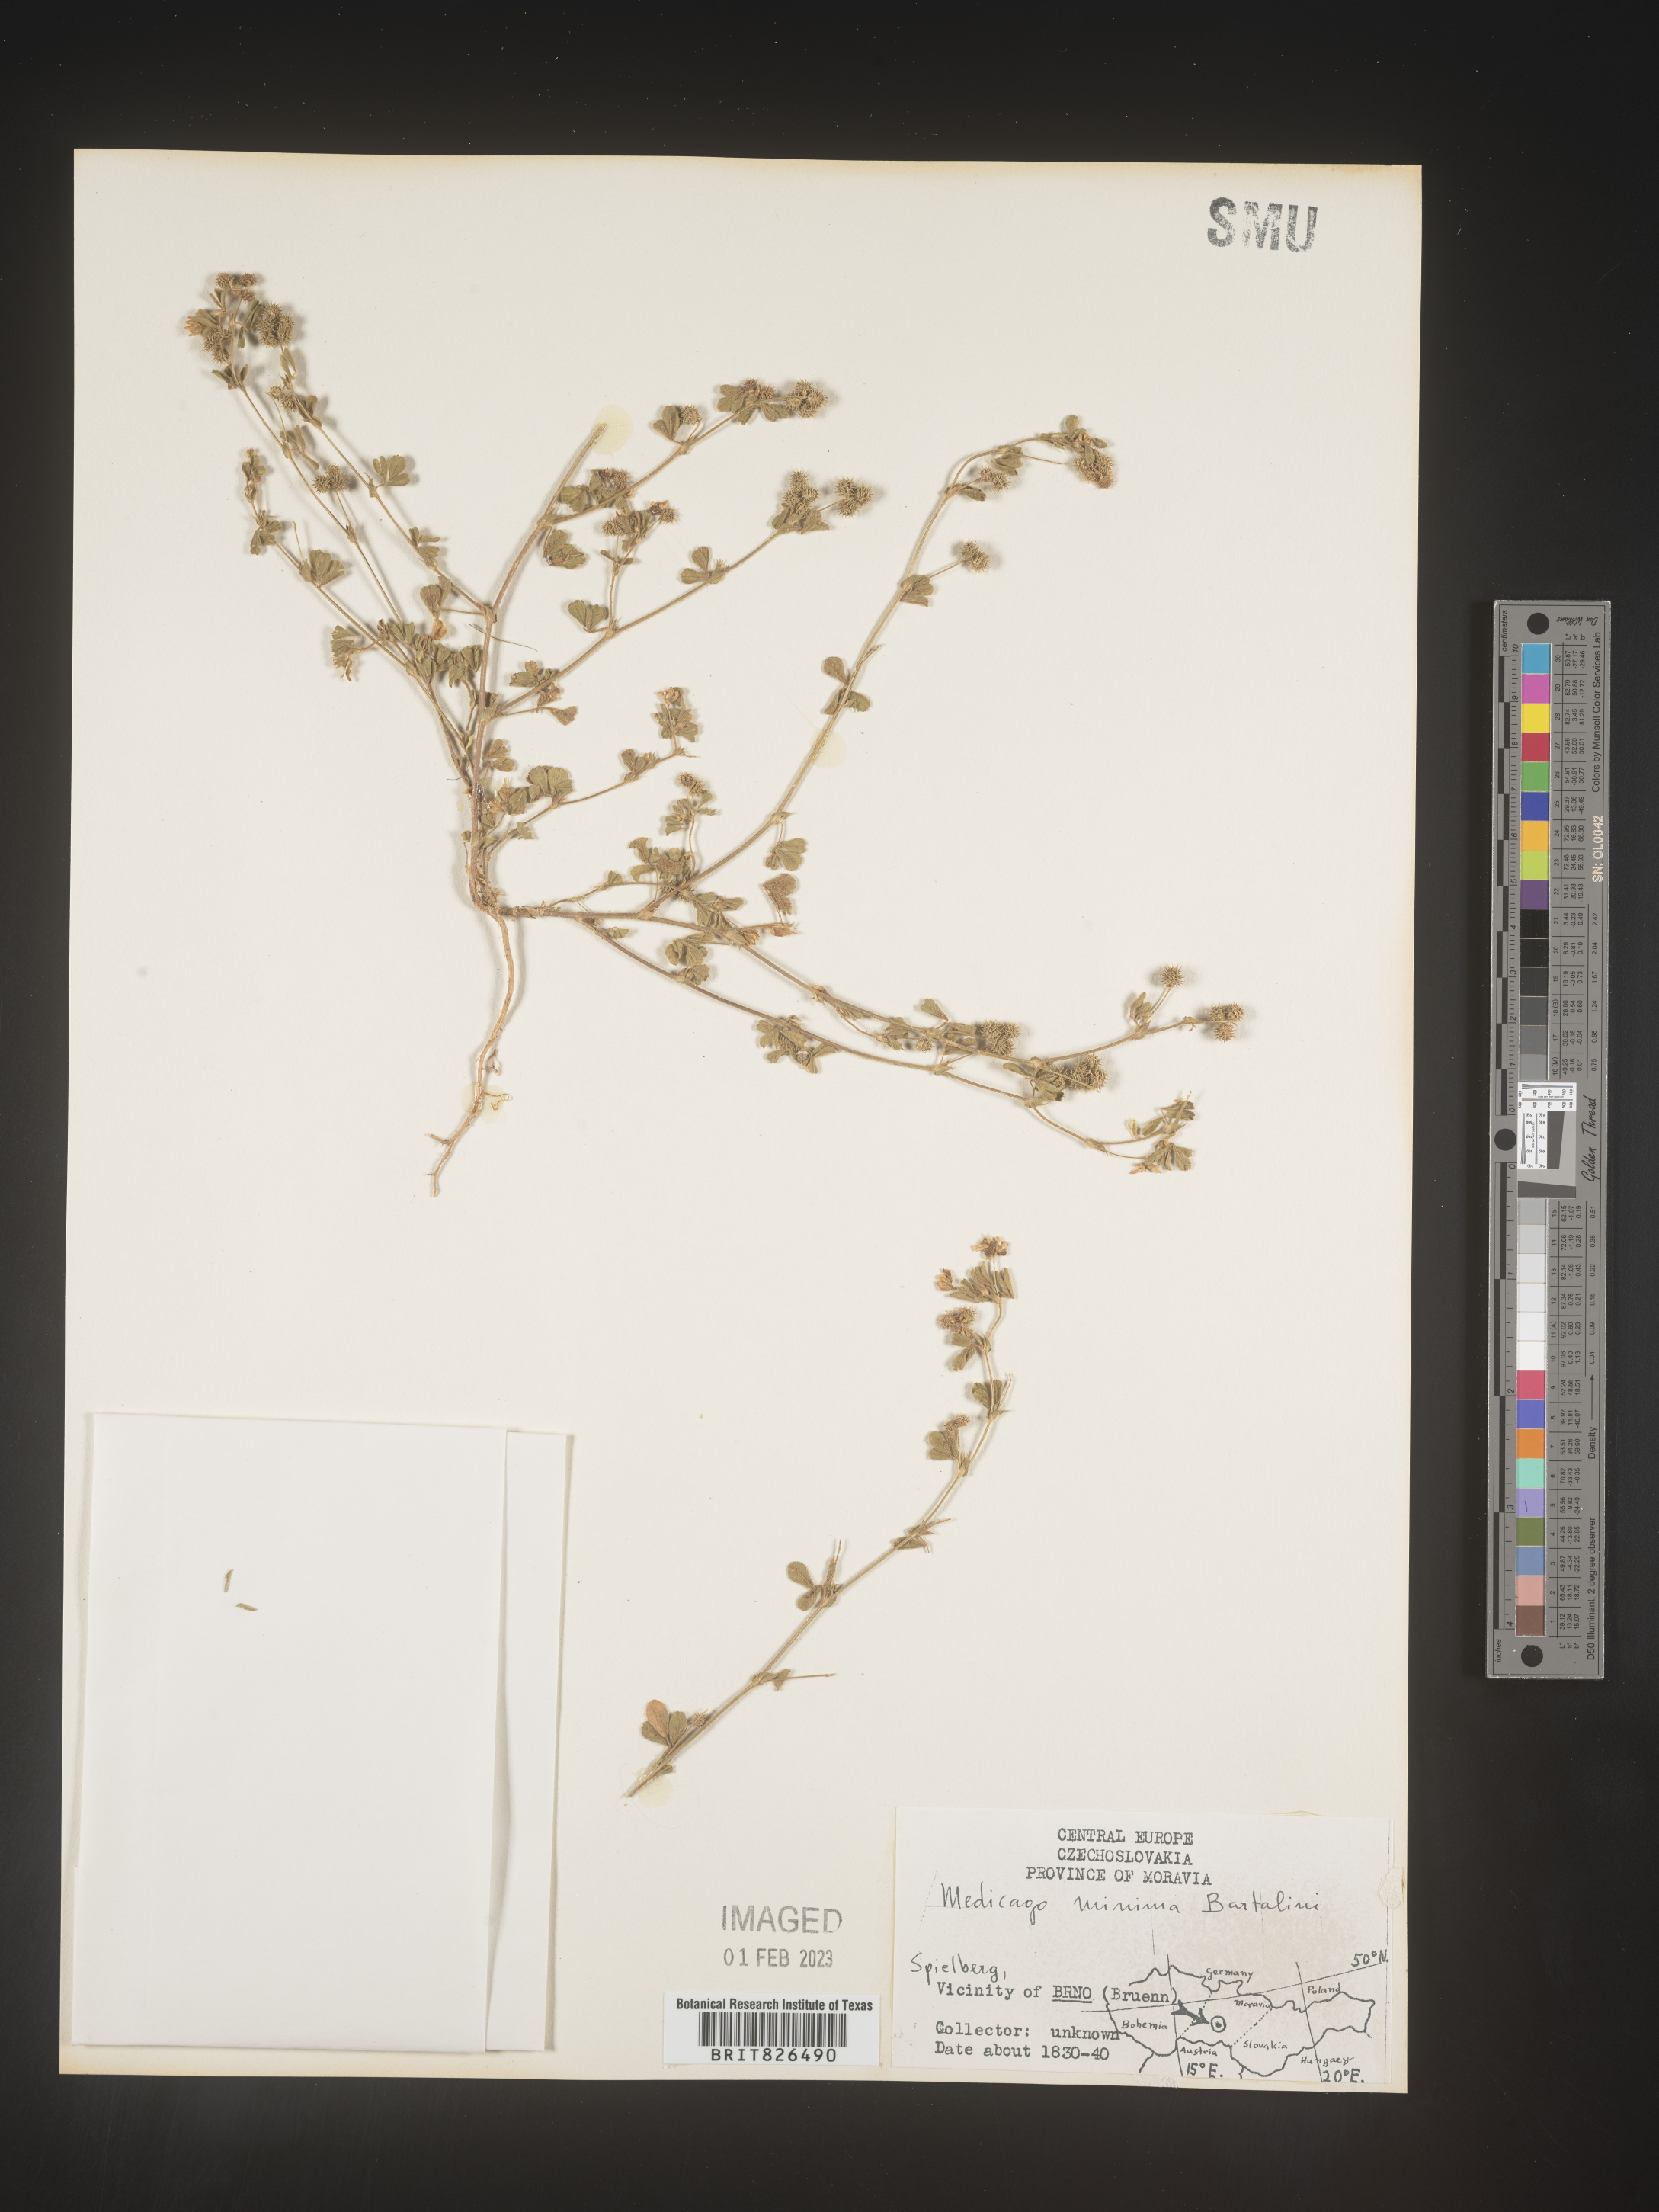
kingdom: Plantae
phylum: Tracheophyta
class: Magnoliopsida
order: Fabales
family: Fabaceae
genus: Medicago
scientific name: Medicago
